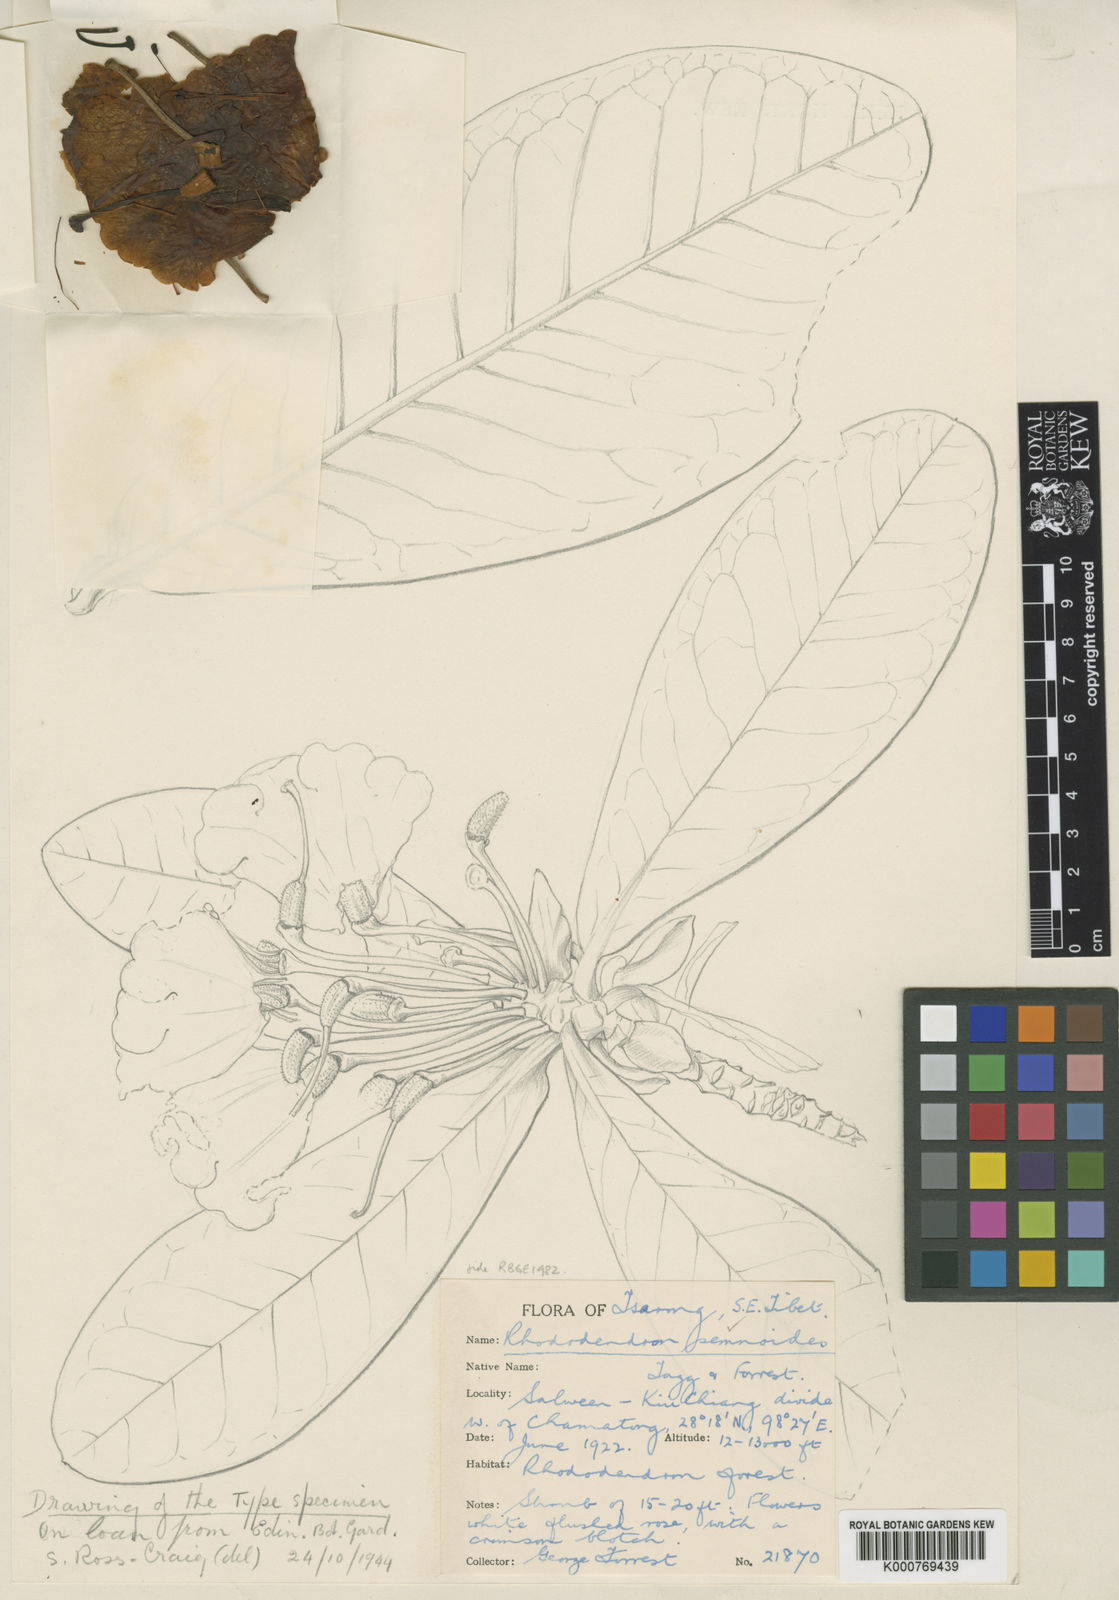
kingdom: Plantae
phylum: Tracheophyta
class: Magnoliopsida
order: Ericales
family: Ericaceae
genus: Rhododendron
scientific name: Rhododendron semnoides
